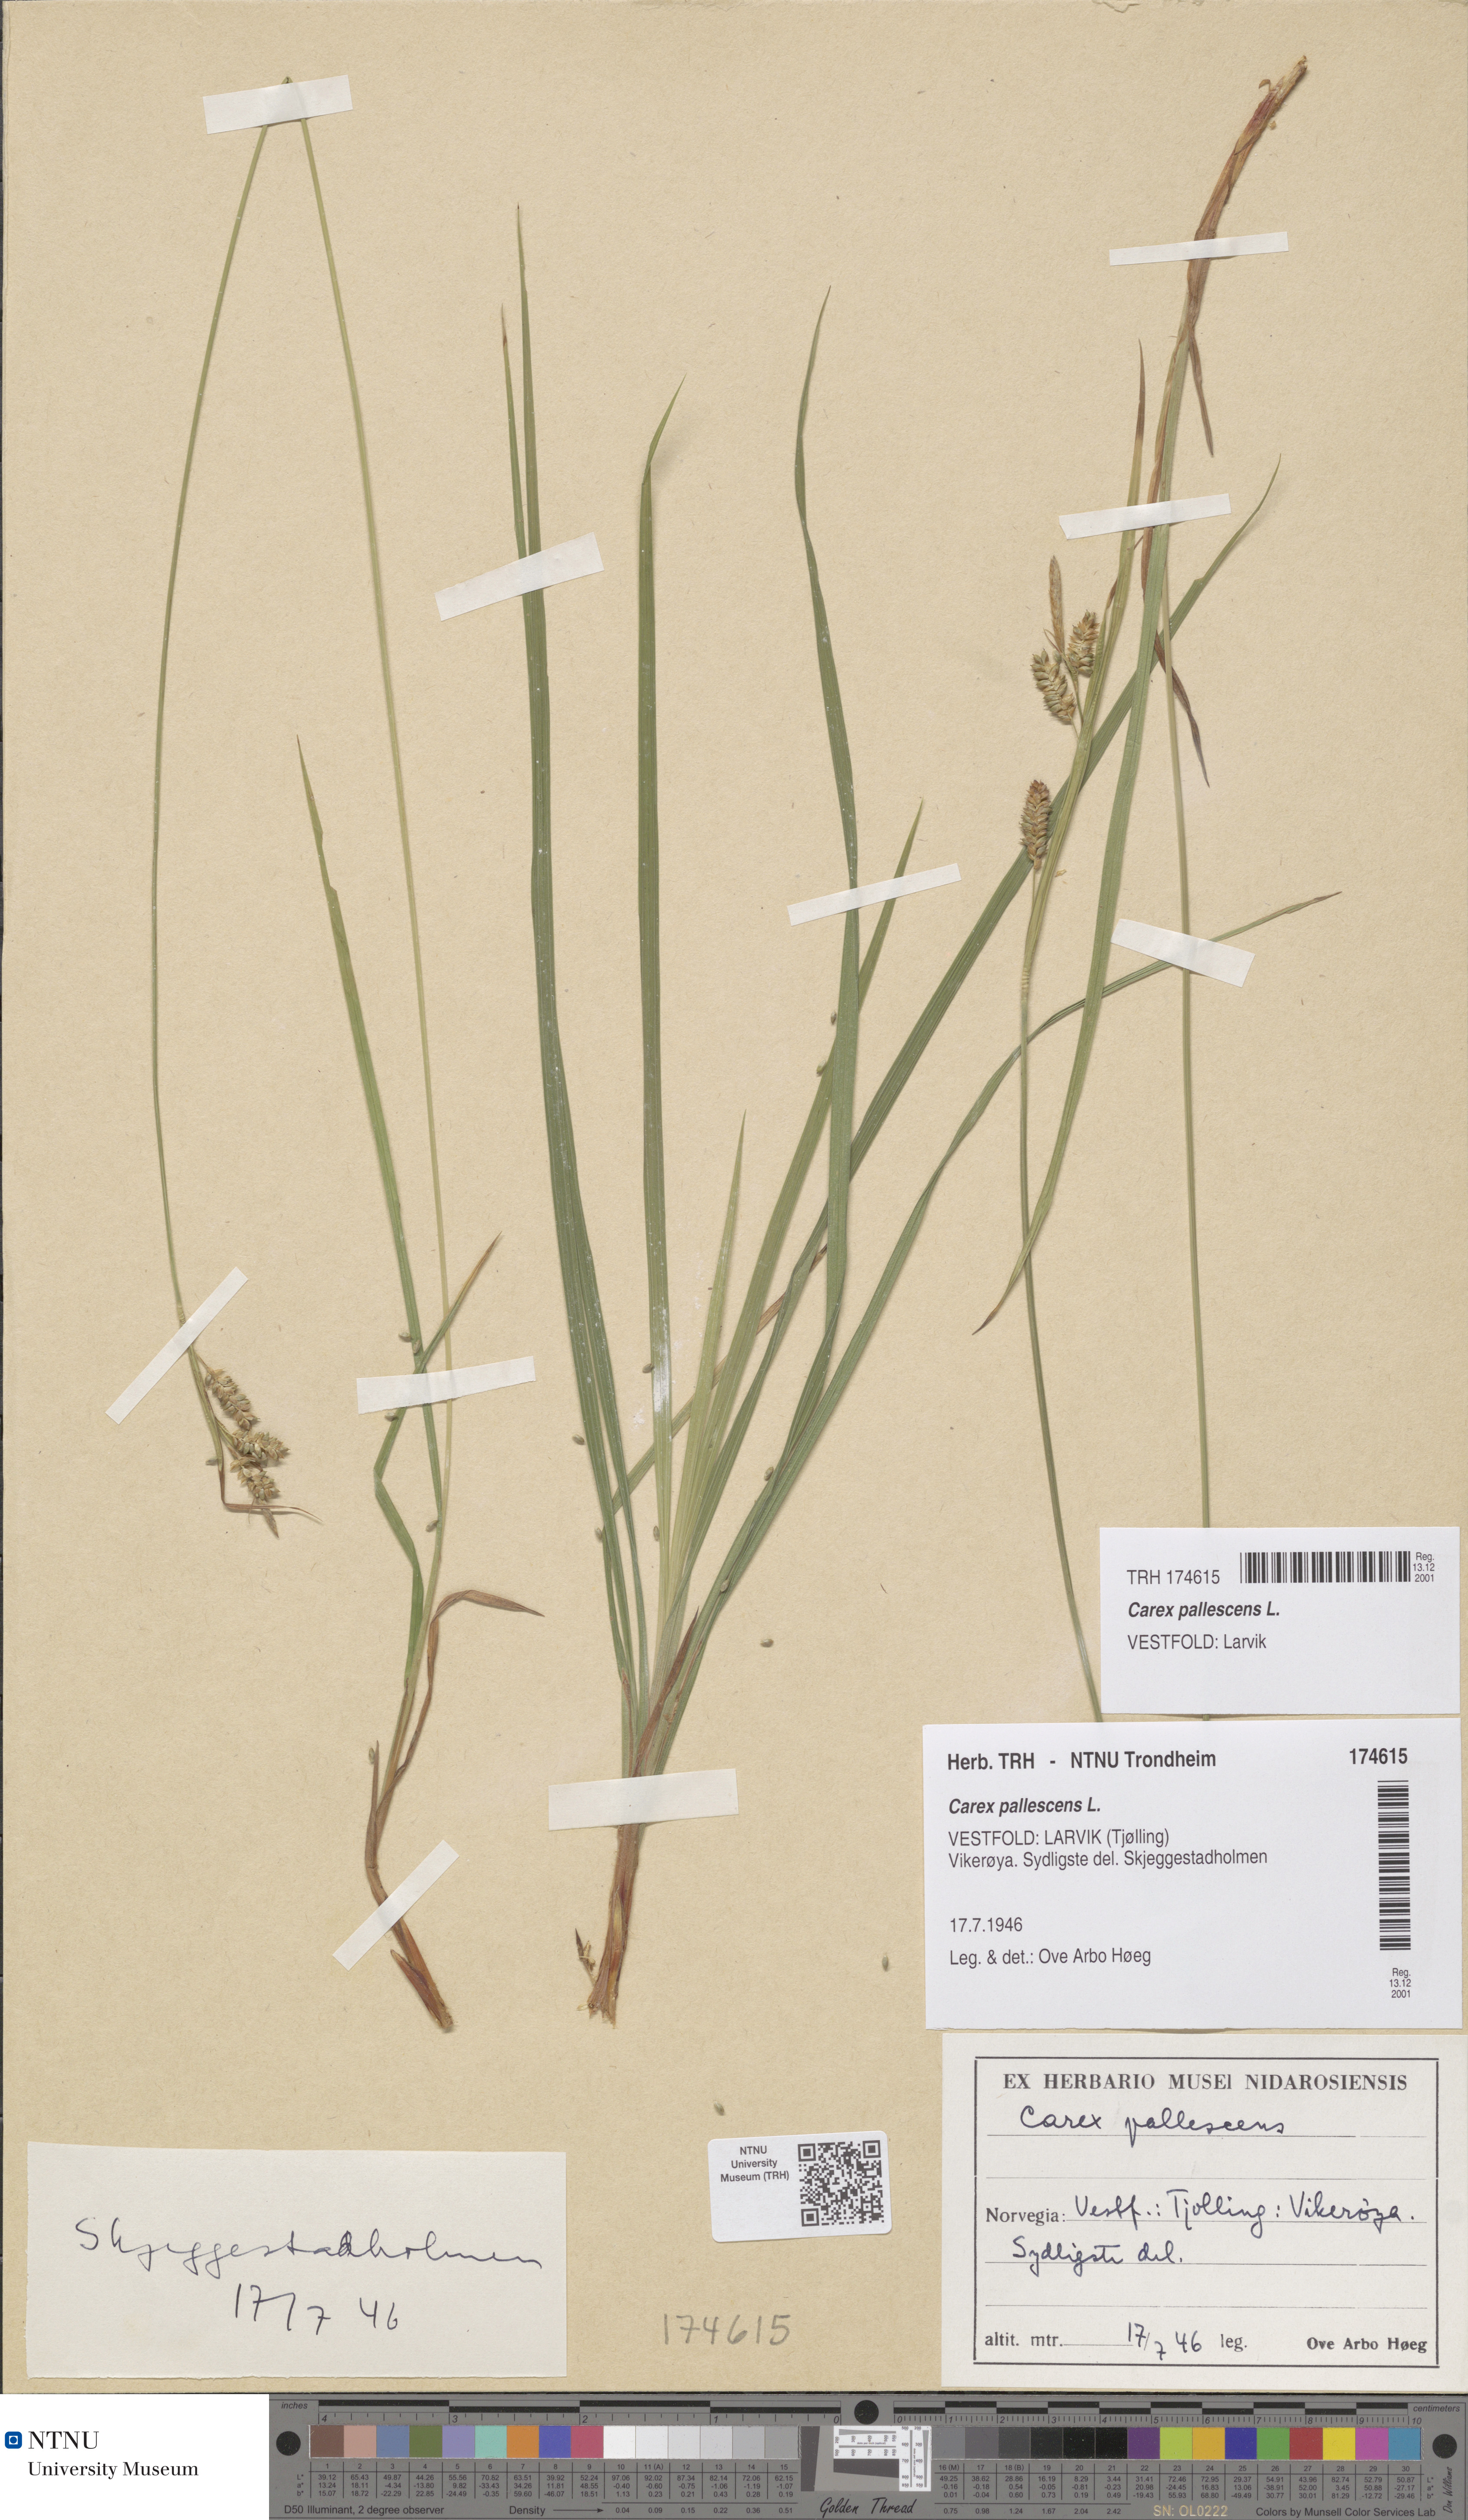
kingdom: Plantae
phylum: Tracheophyta
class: Liliopsida
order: Poales
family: Cyperaceae
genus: Carex
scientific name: Carex pallescens
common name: Pale sedge
